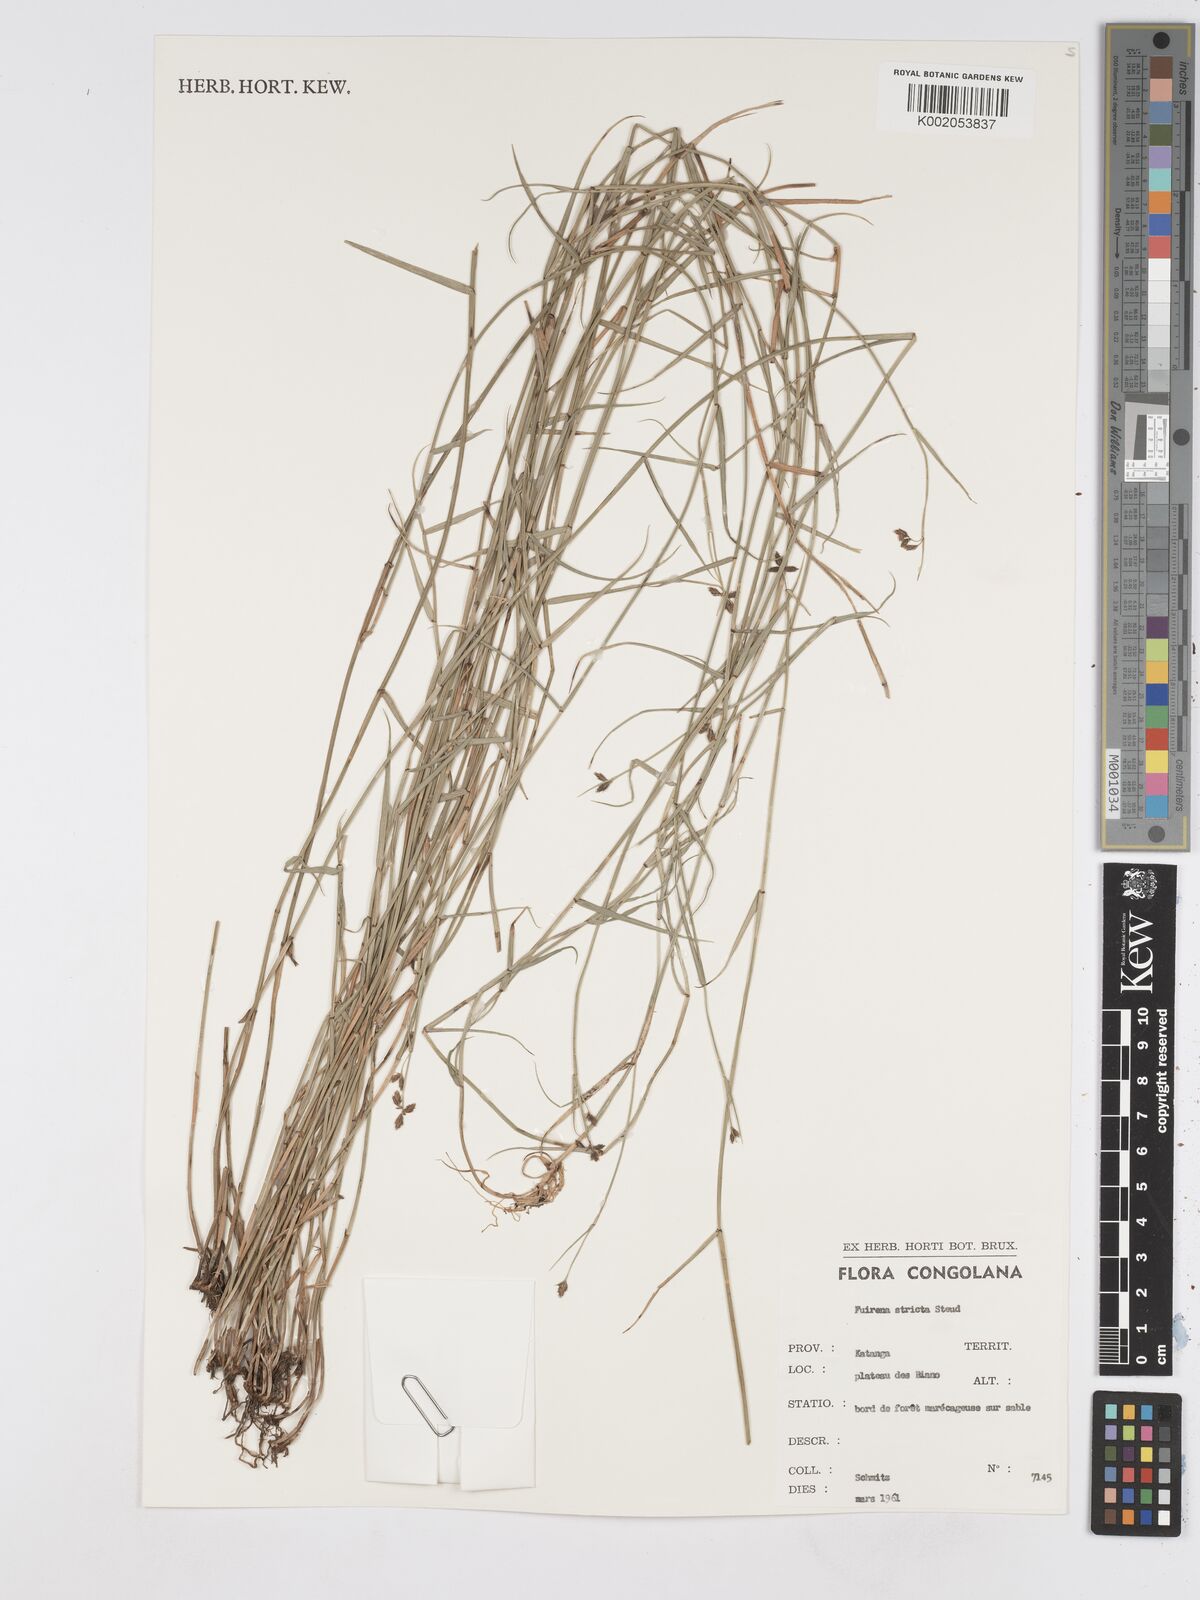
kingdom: Plantae
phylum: Tracheophyta
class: Liliopsida
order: Poales
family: Cyperaceae
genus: Fuirena
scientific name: Fuirena stricta
